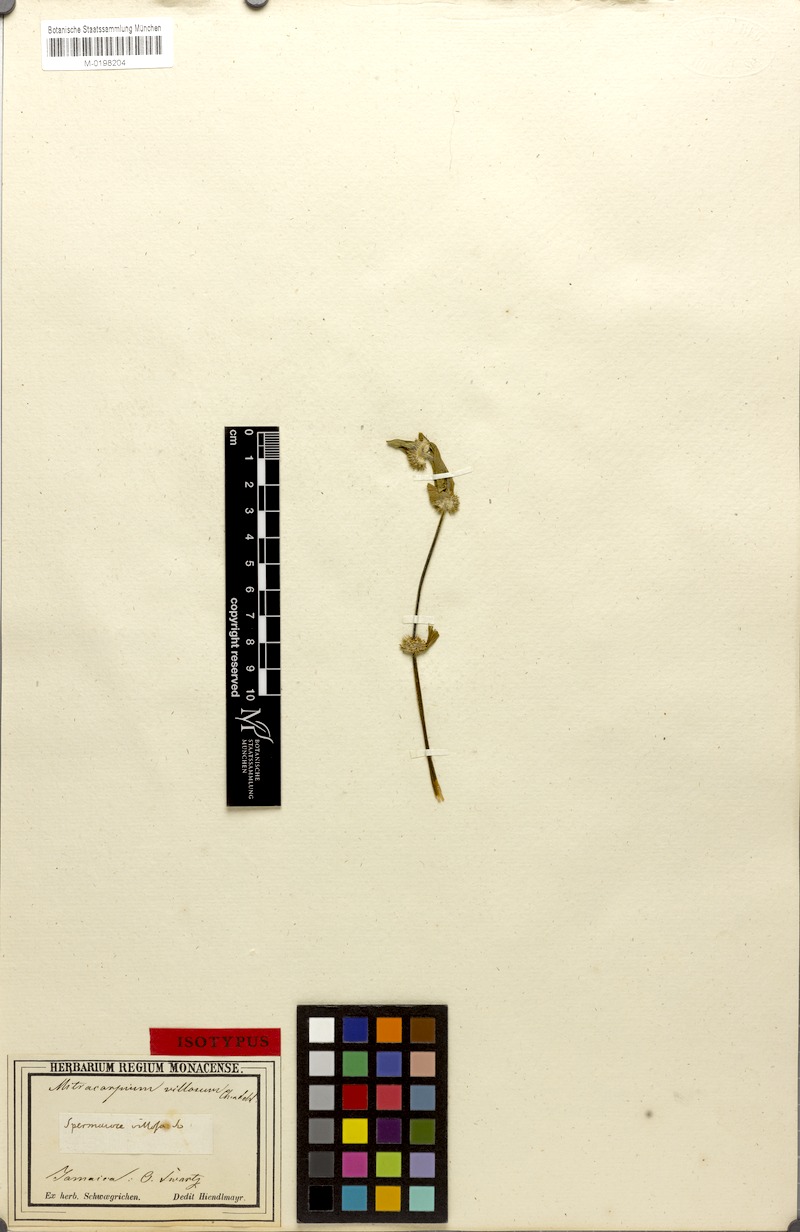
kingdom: Plantae
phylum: Tracheophyta
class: Magnoliopsida
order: Gentianales
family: Rubiaceae
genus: Mitracarpus
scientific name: Mitracarpus hirtus
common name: Tropical girdlepod
